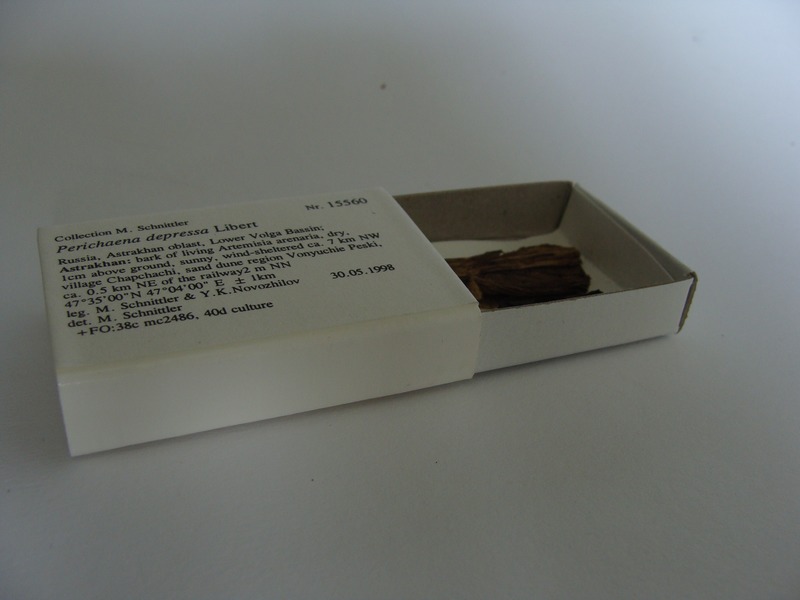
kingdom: Protozoa
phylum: Mycetozoa
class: Myxomycetes
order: Trichiales
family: Trichiaceae
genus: Perichaena
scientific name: Perichaena depressa
